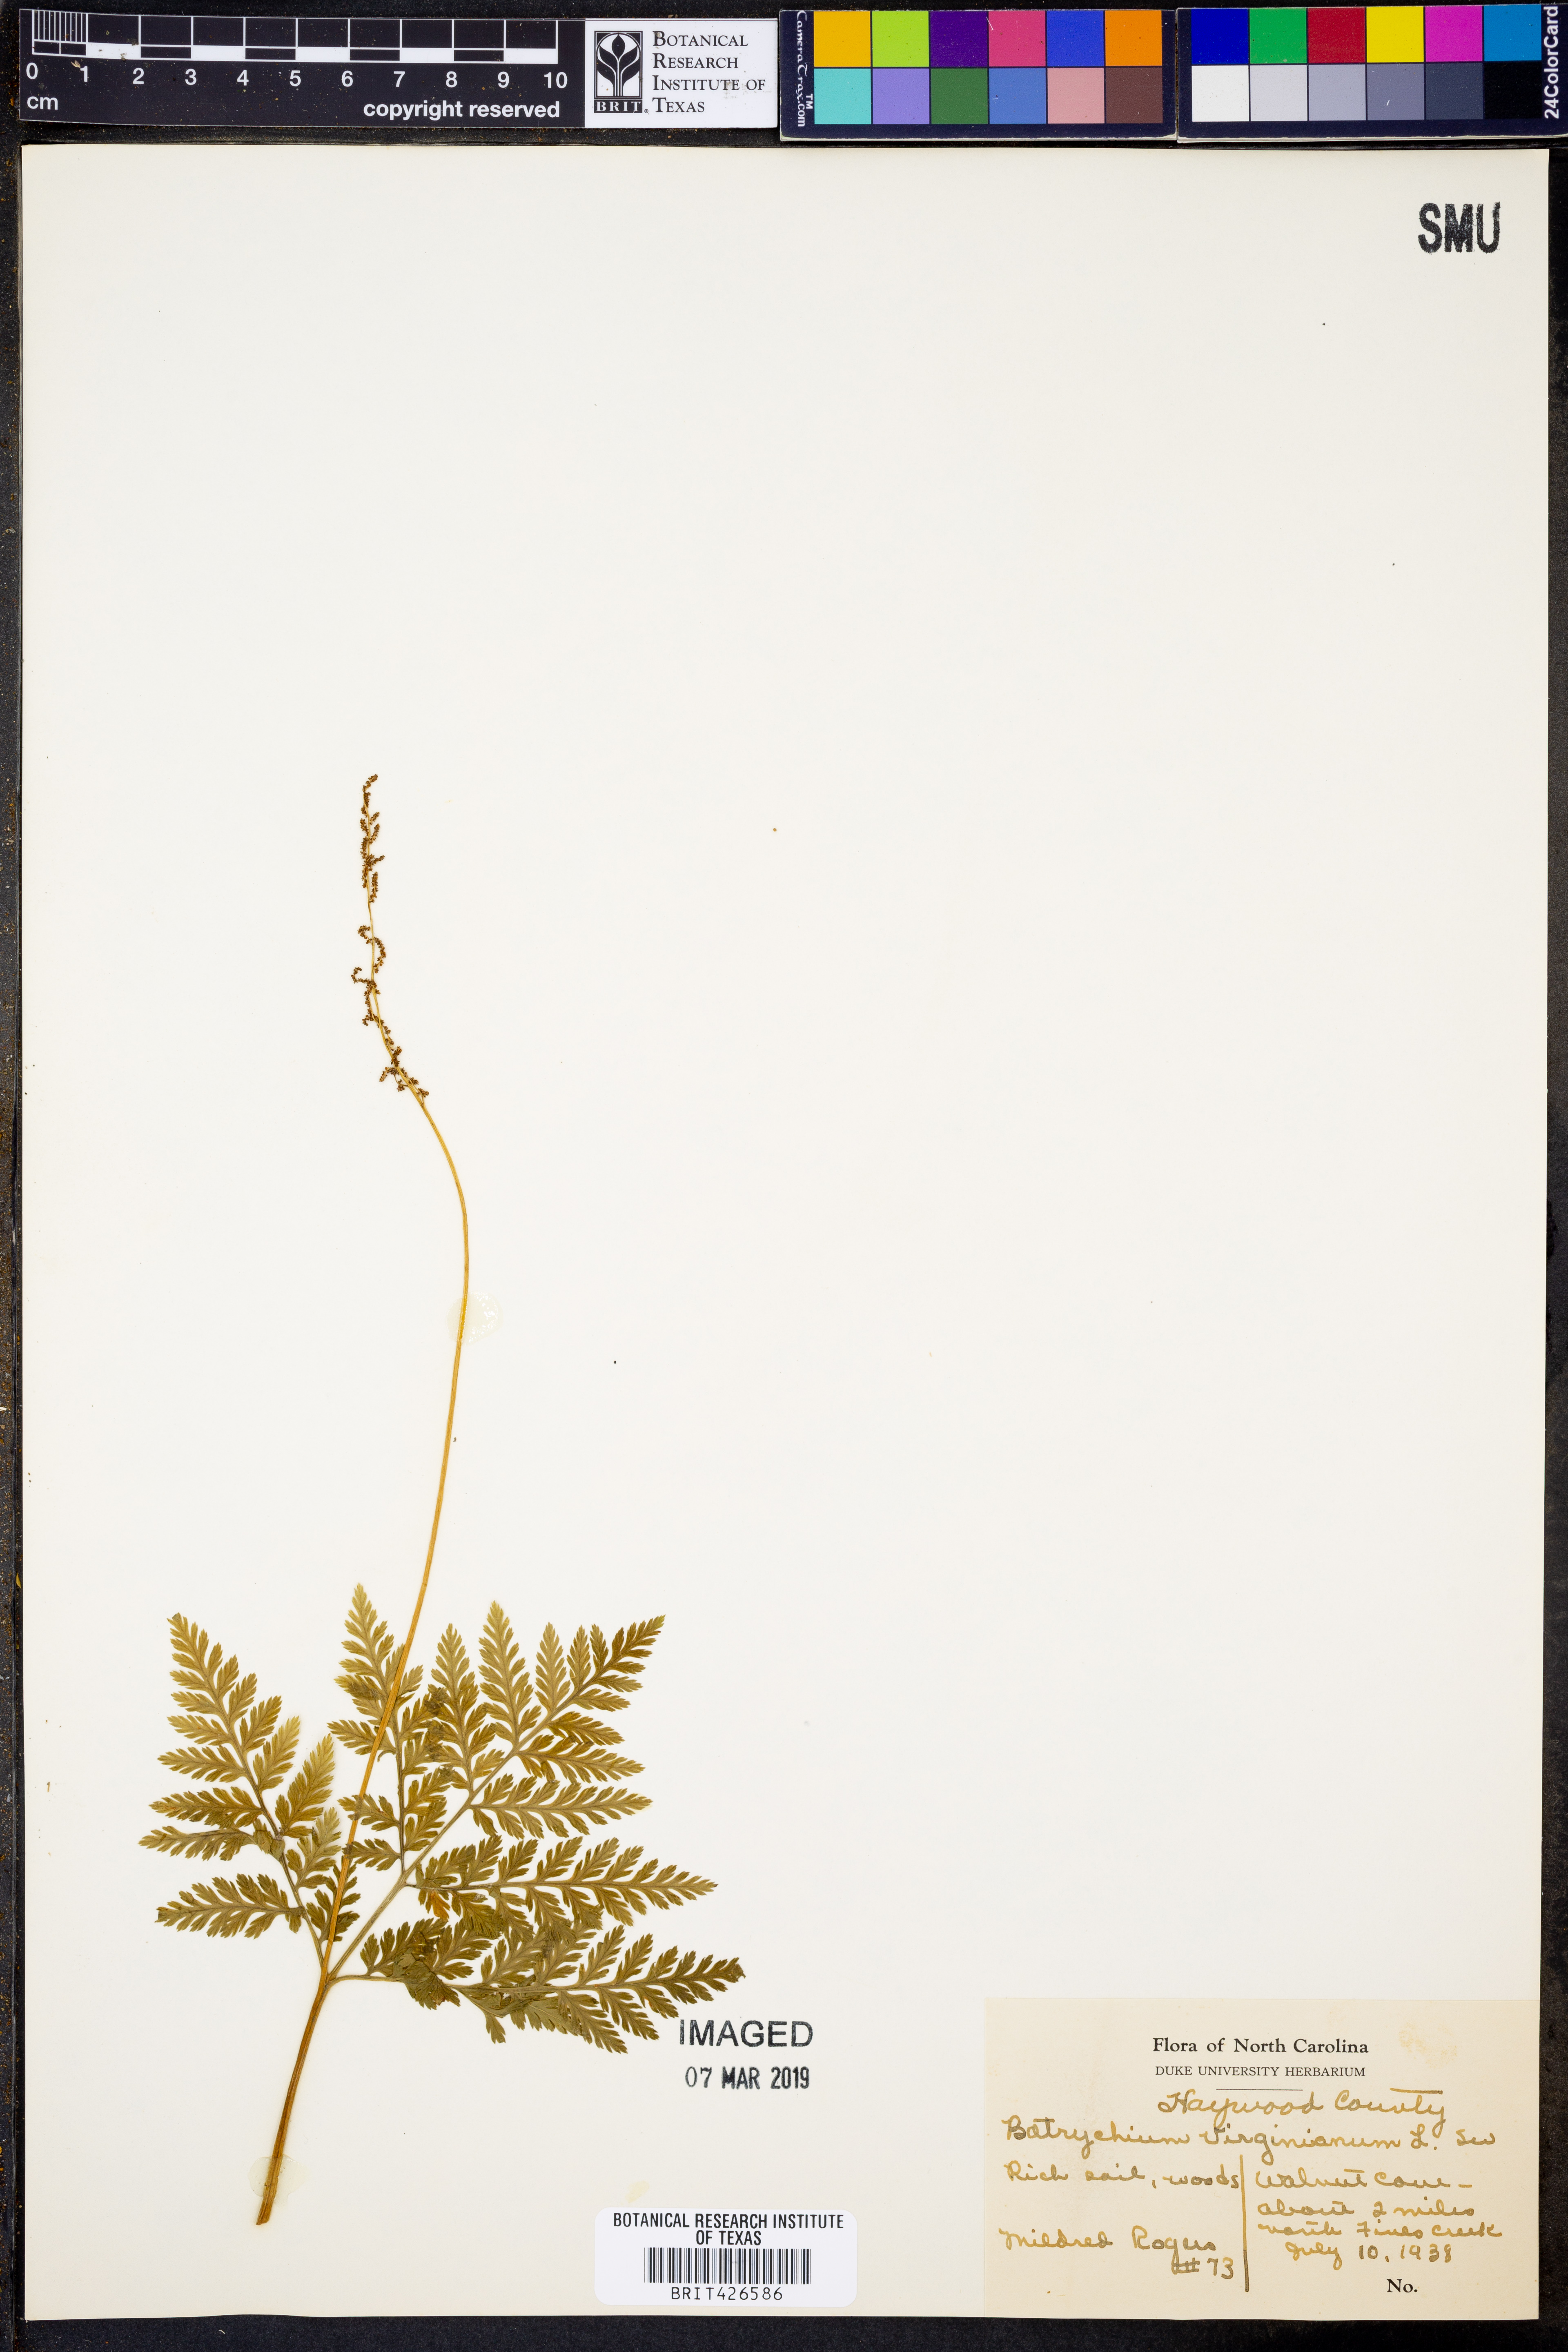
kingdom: Plantae
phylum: Tracheophyta
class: Polypodiopsida
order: Ophioglossales
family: Ophioglossaceae
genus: Botrypus
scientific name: Botrypus virginianus
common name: Common grapefern
